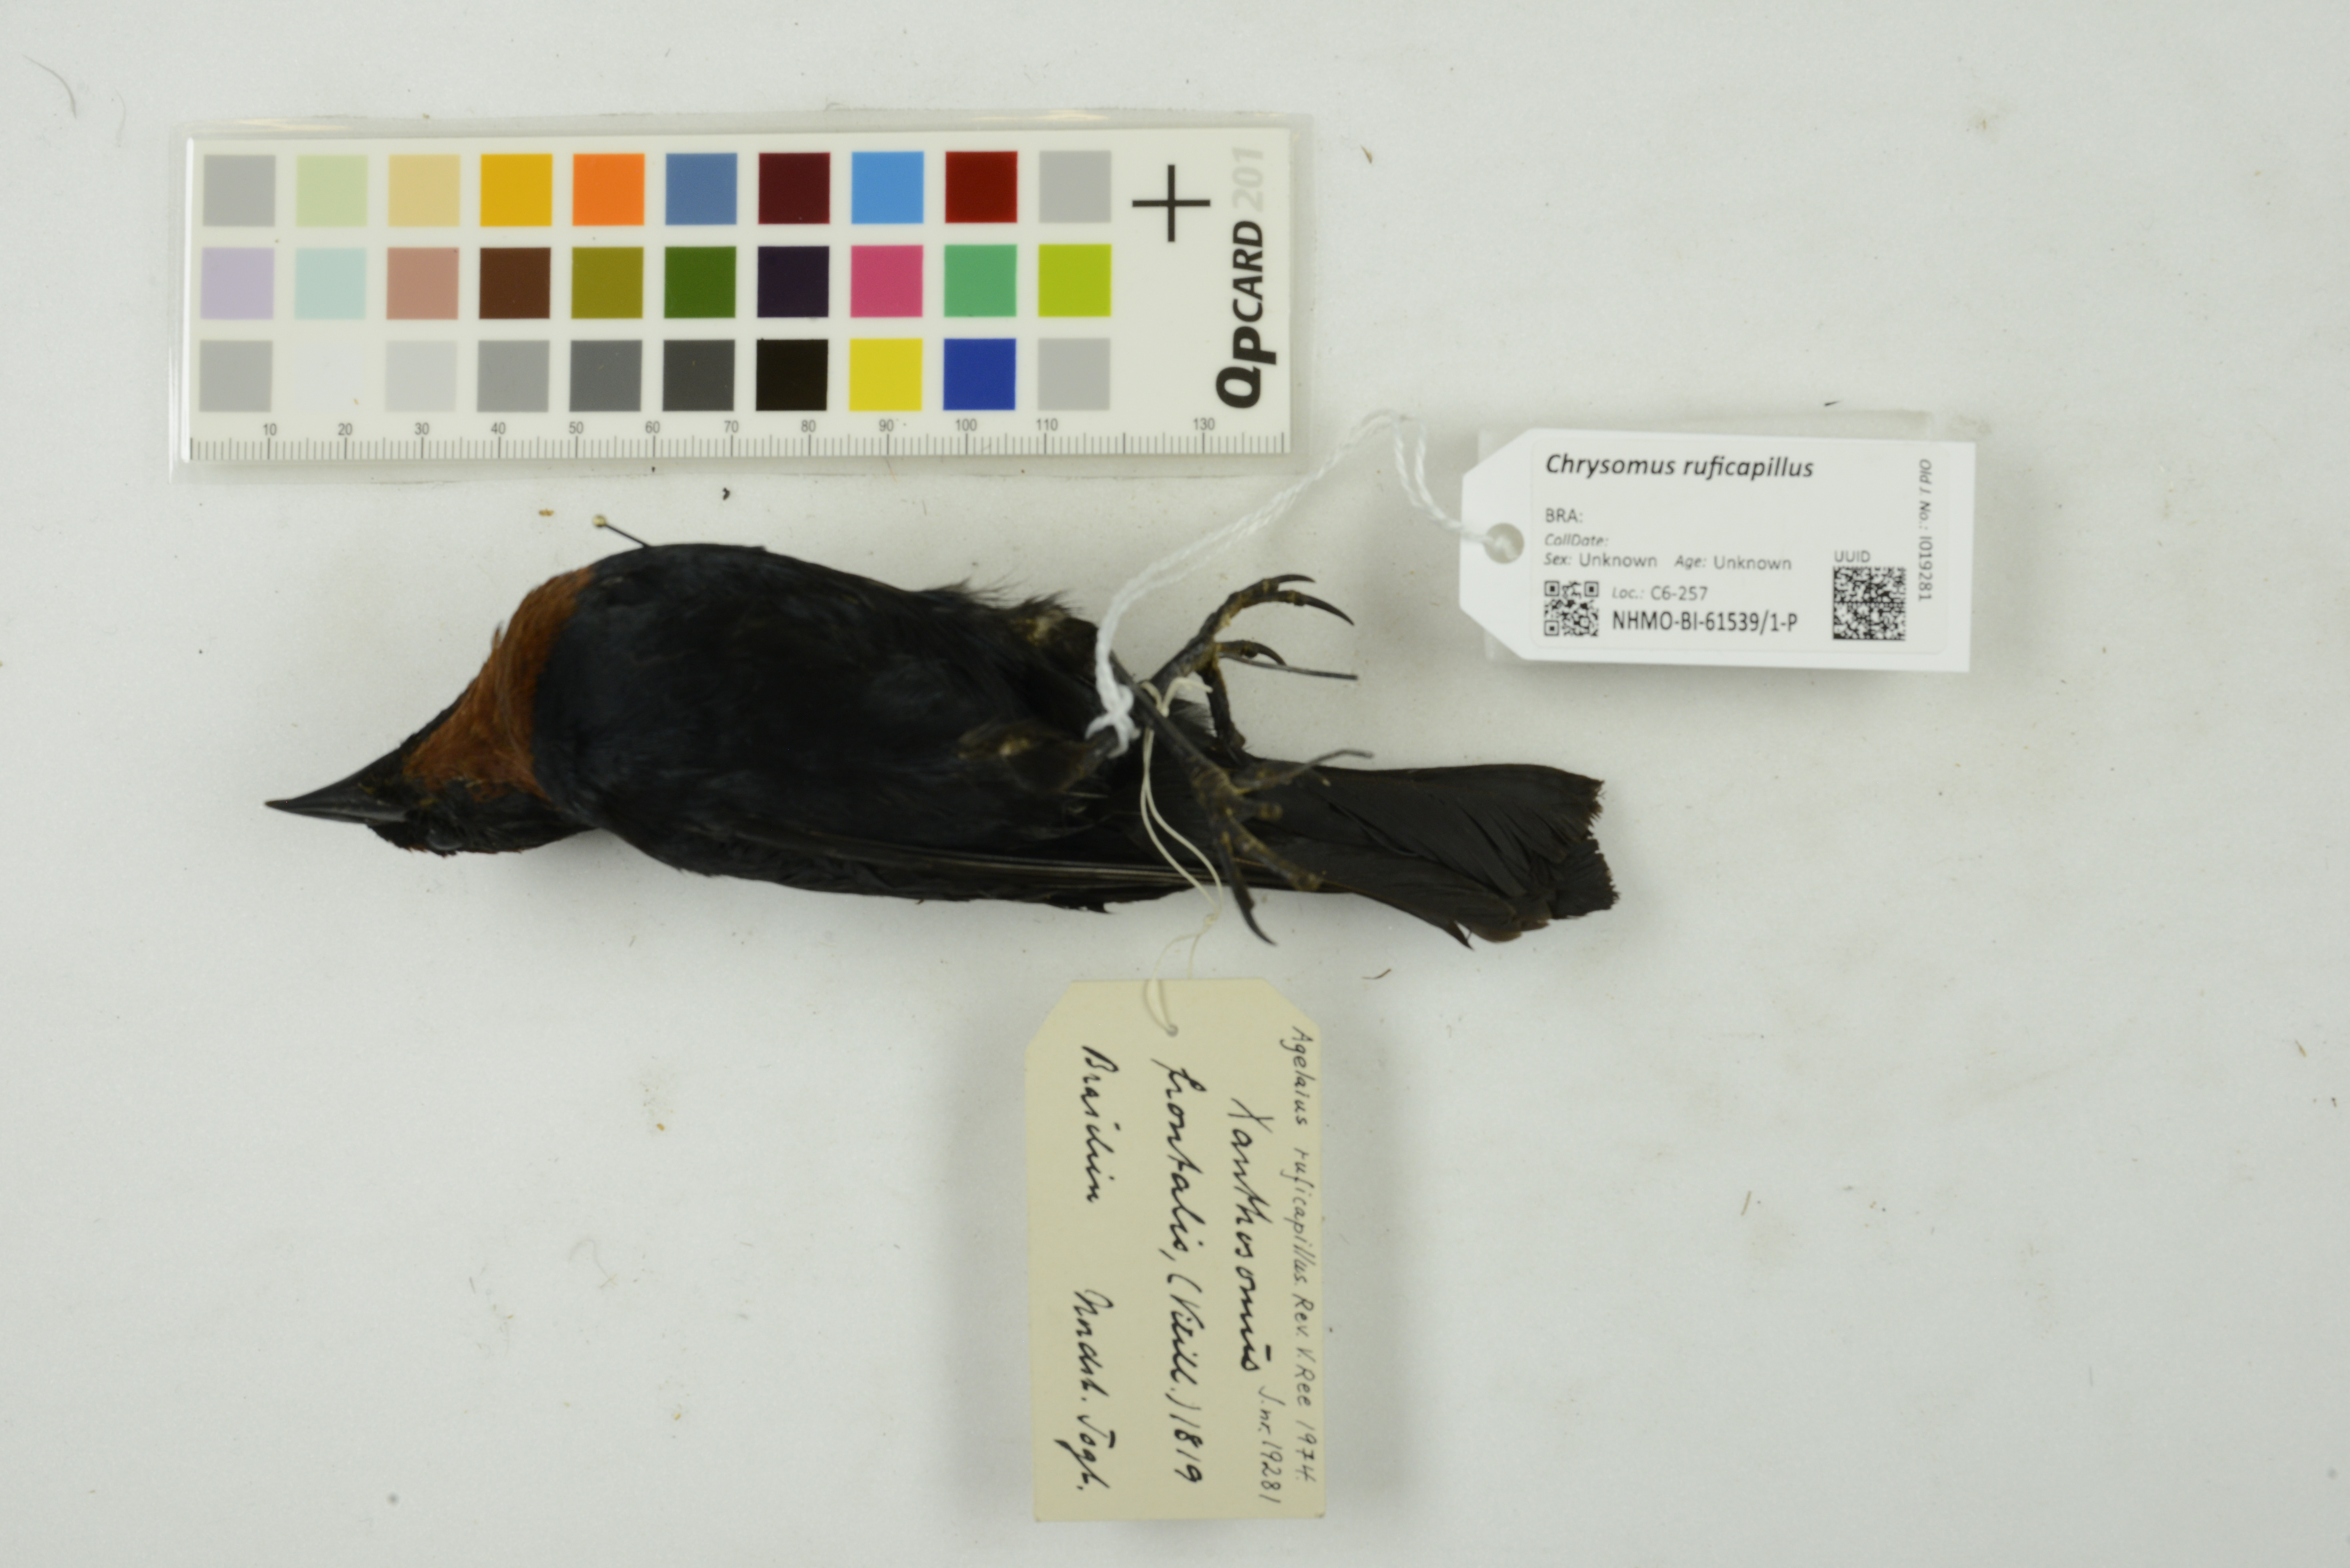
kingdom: Animalia
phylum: Chordata
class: Aves
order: Passeriformes
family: Icteridae
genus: Chrysomus
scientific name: Chrysomus ruficapillus
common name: Chestnut-capped blackbird
